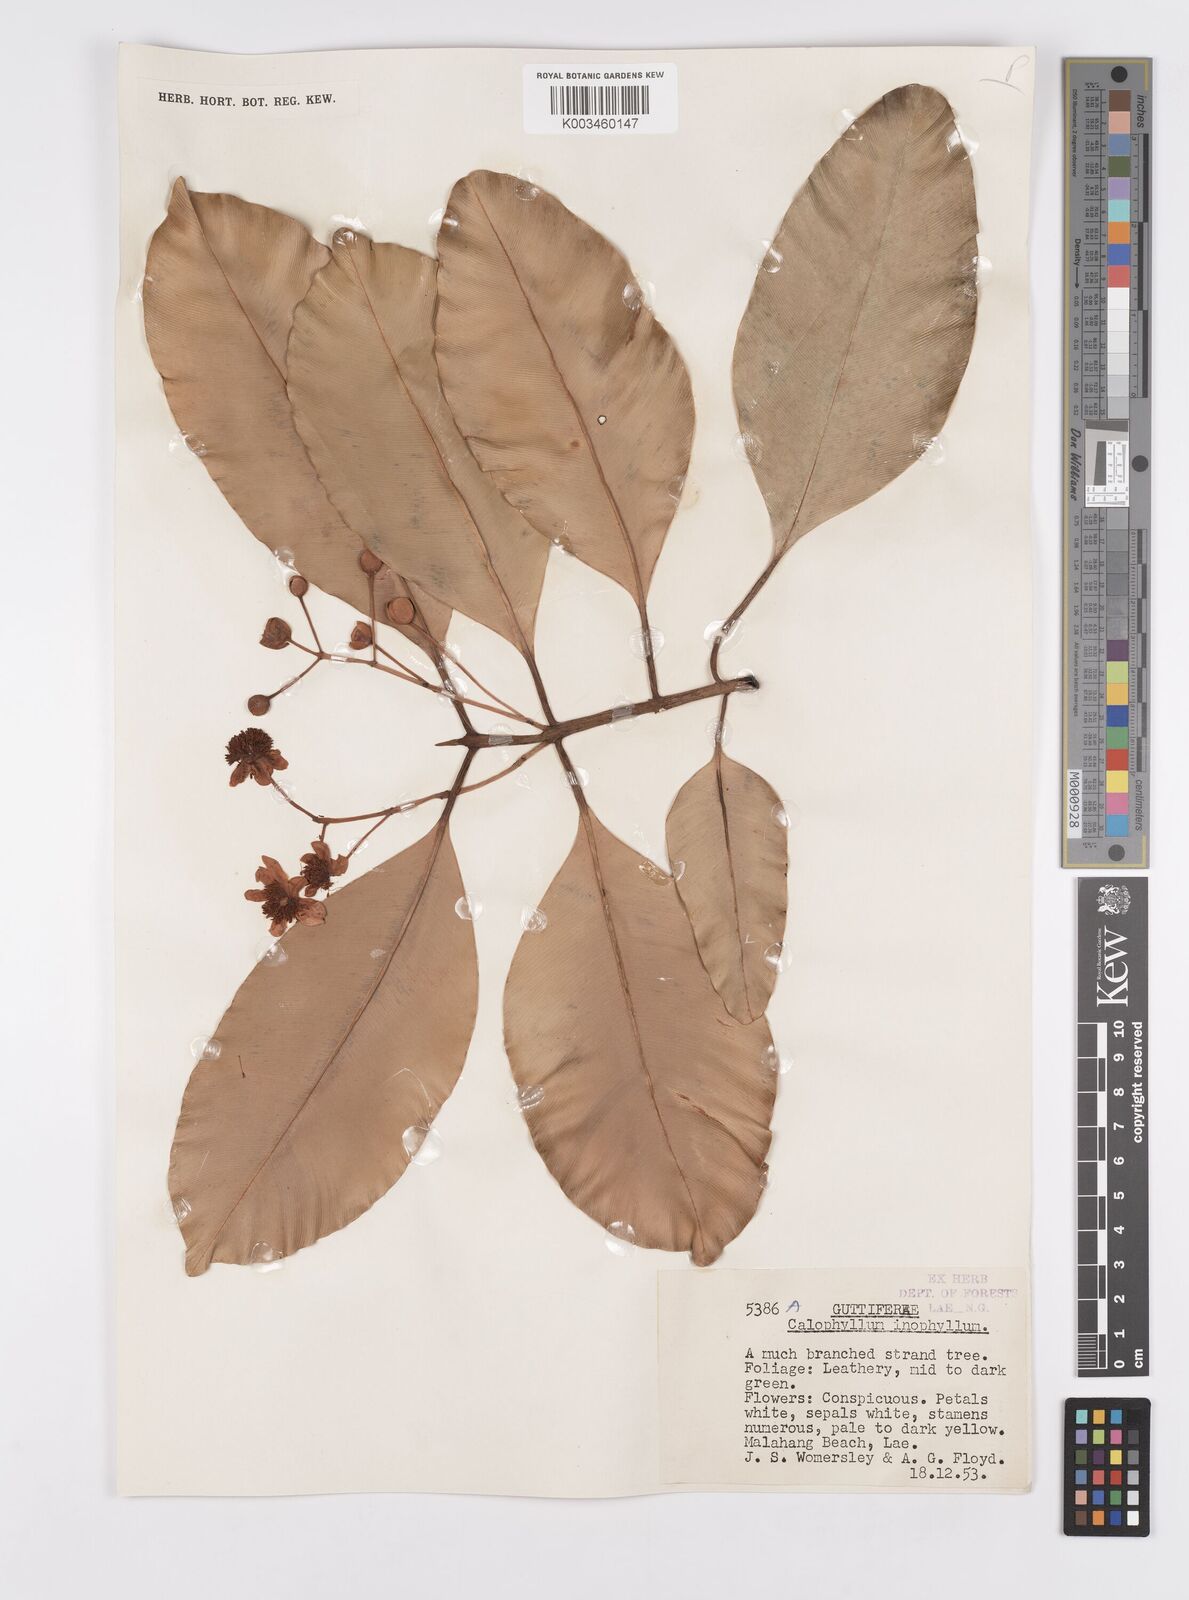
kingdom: Plantae
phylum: Tracheophyta
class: Magnoliopsida
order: Malpighiales
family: Calophyllaceae
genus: Calophyllum
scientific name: Calophyllum inophyllum
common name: Alexandrian laurel
